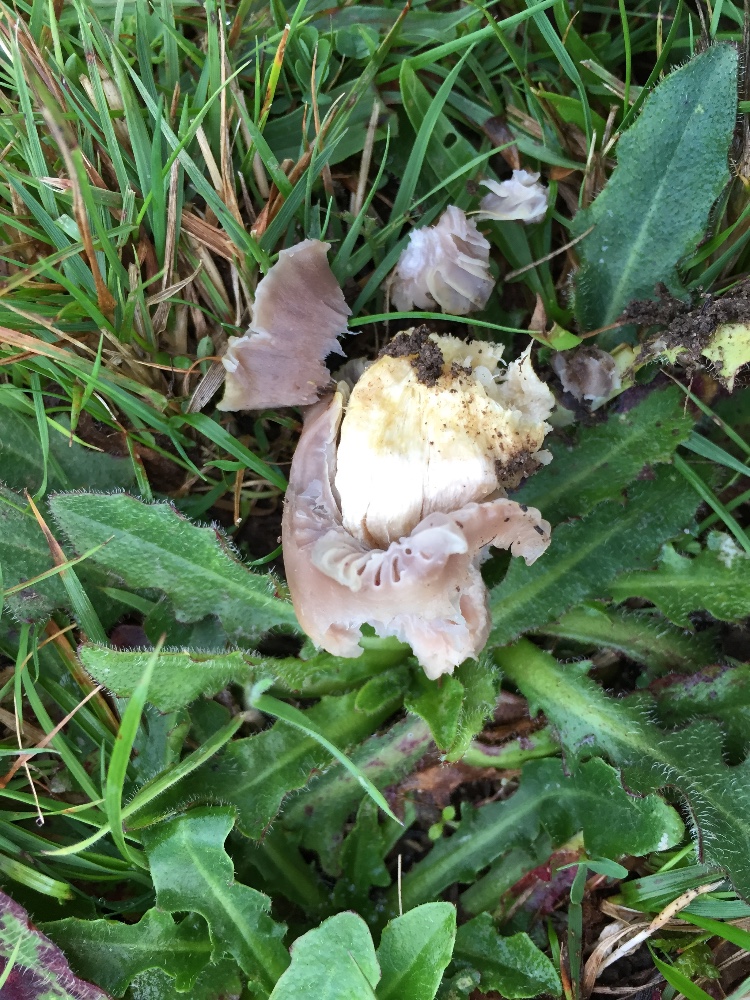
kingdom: Fungi
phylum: Basidiomycota
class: Agaricomycetes
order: Agaricales
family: Hygrophoraceae
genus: Cuphophyllus
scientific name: Cuphophyllus flavipes
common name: gulfodet vokshat
